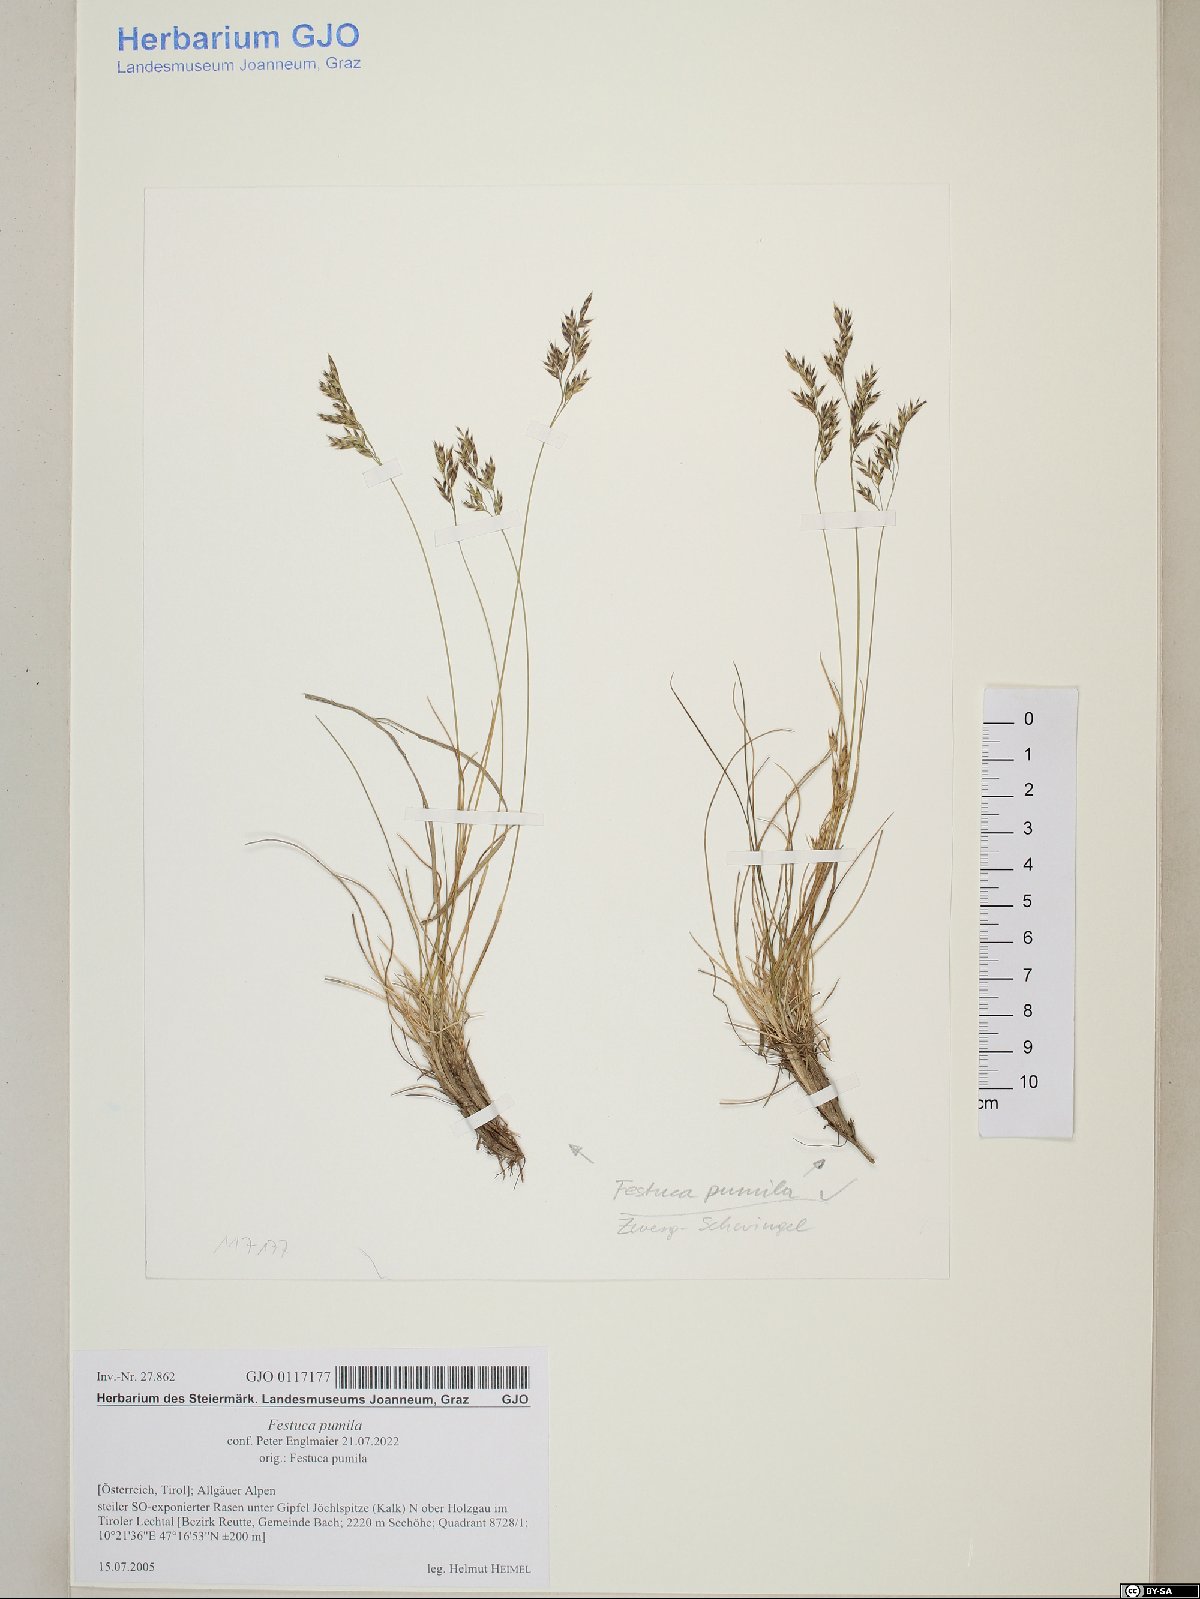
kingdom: Plantae
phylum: Tracheophyta
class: Liliopsida
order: Poales
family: Poaceae
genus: Festuca
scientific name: Festuca quadriflora
